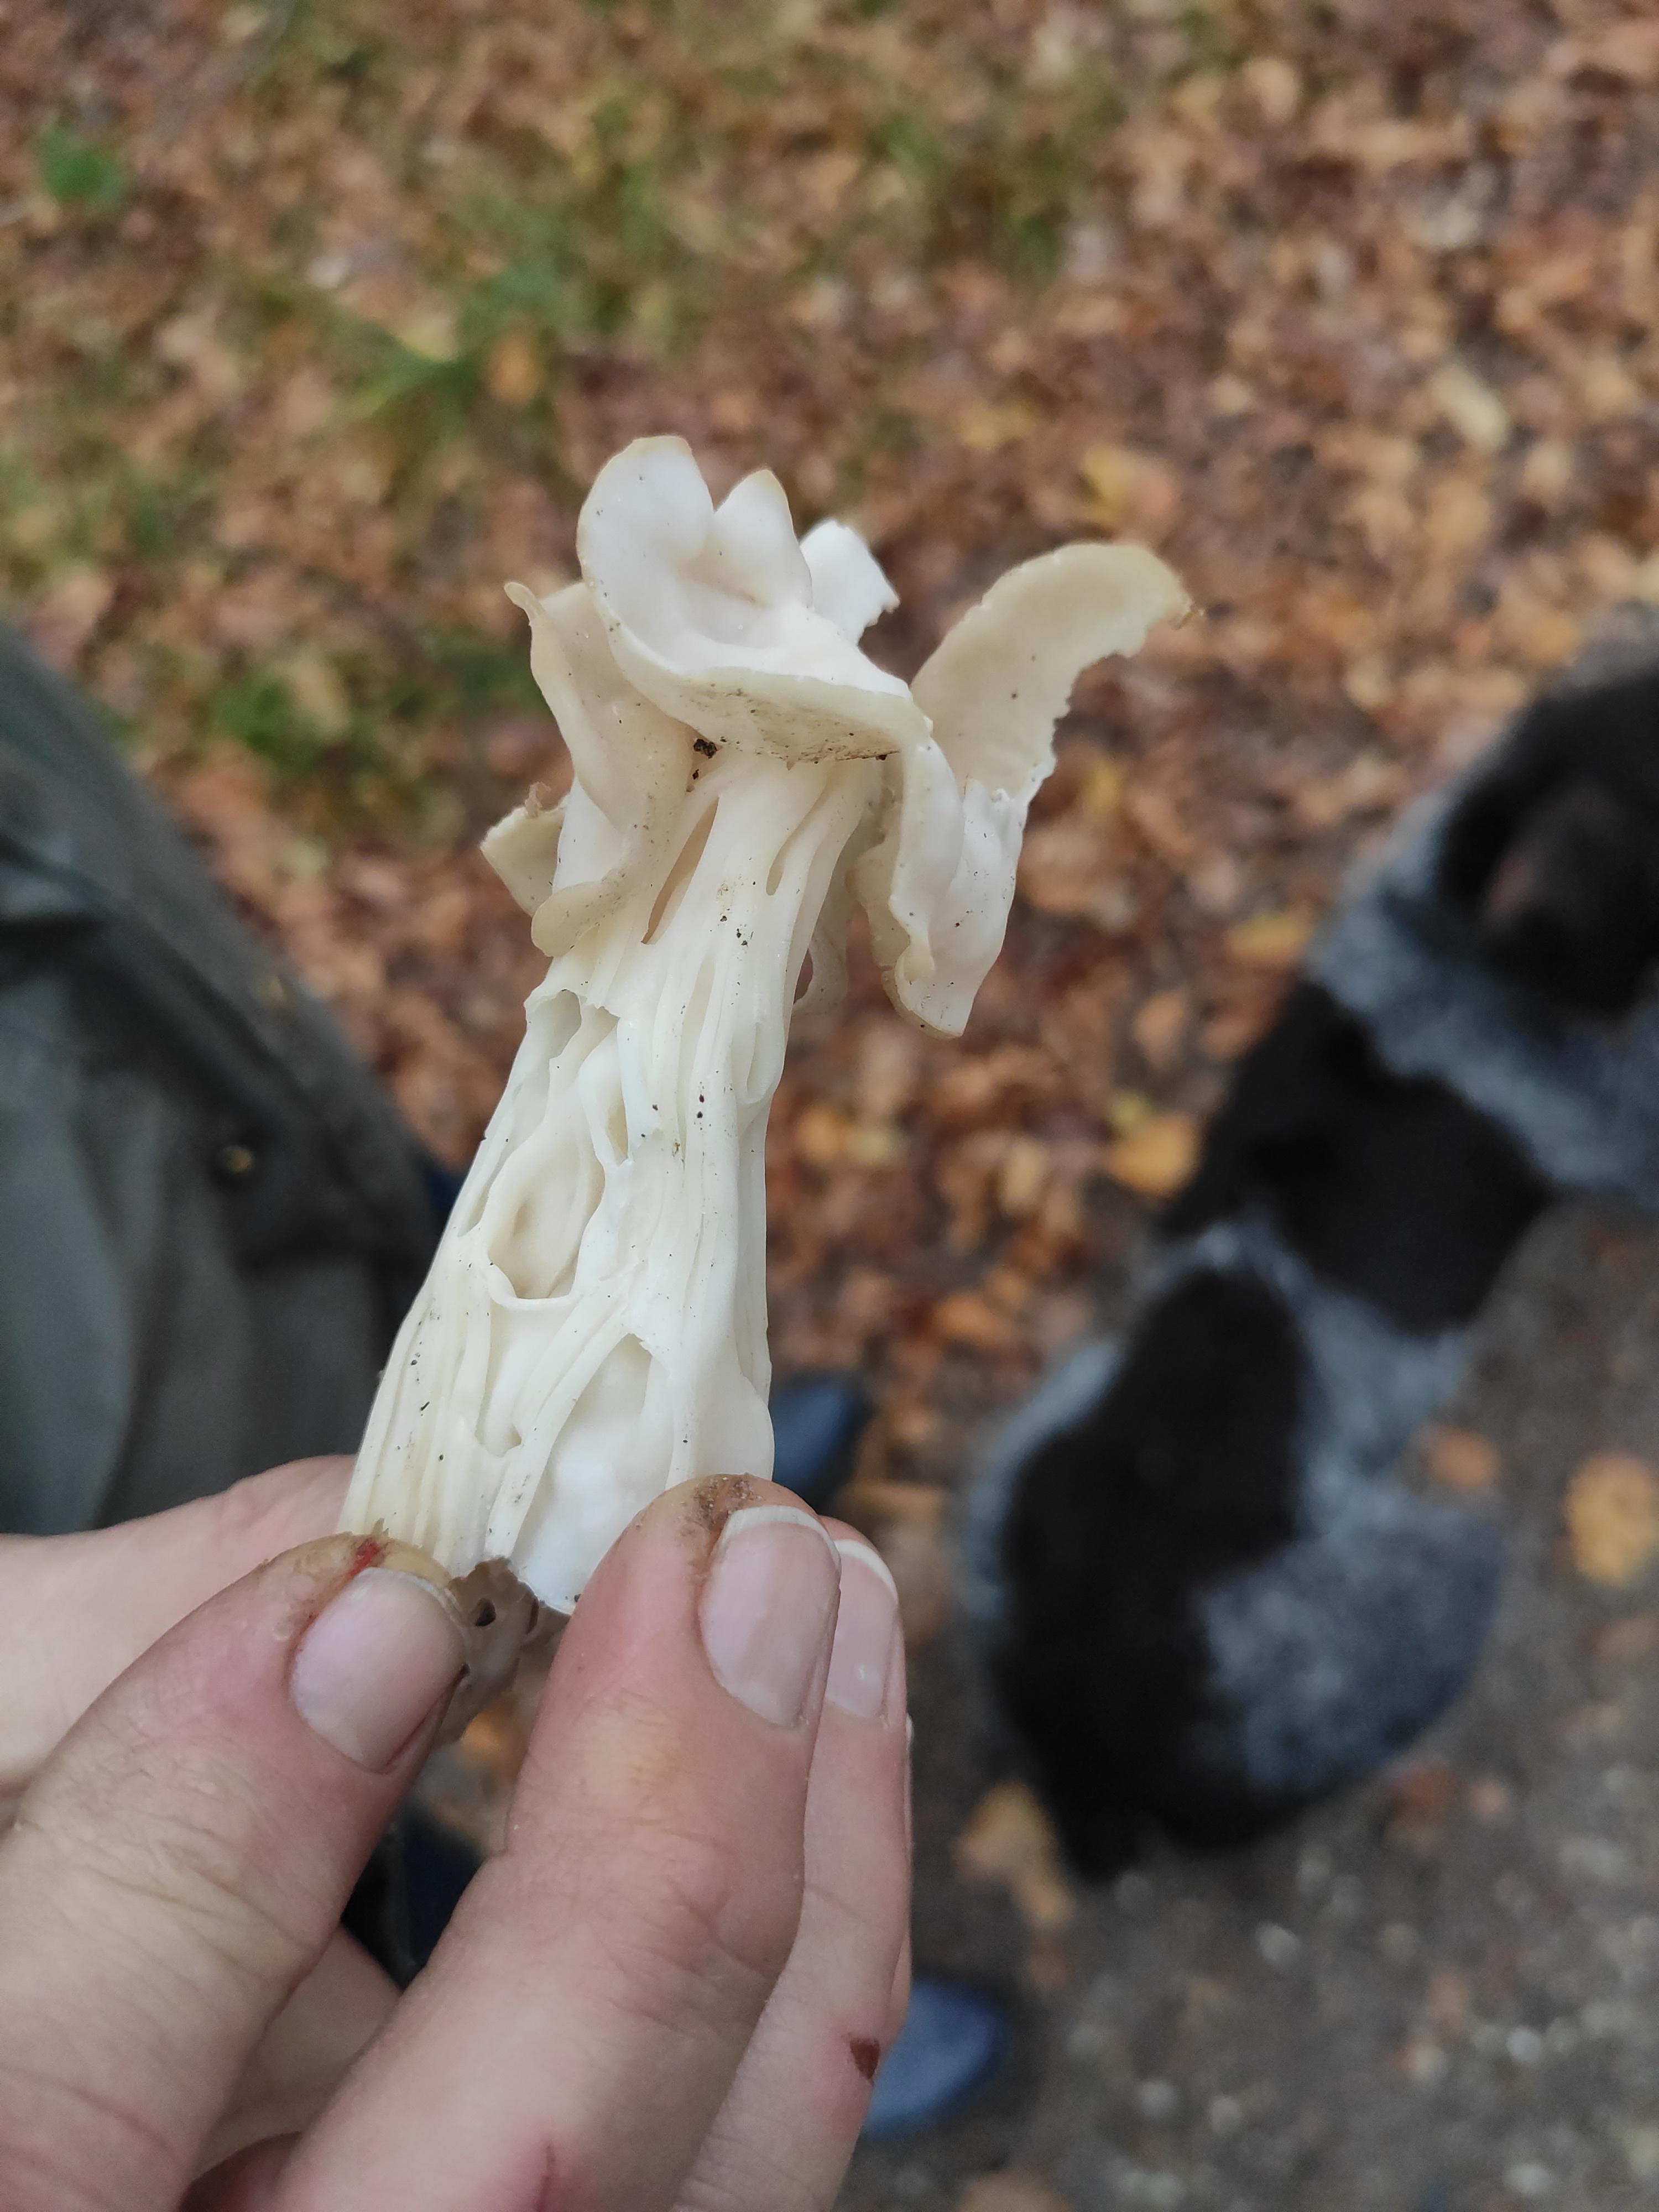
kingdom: Fungi
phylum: Ascomycota
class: Pezizomycetes
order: Pezizales
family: Helvellaceae
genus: Helvella
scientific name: Helvella crispa
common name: kruset foldhat
